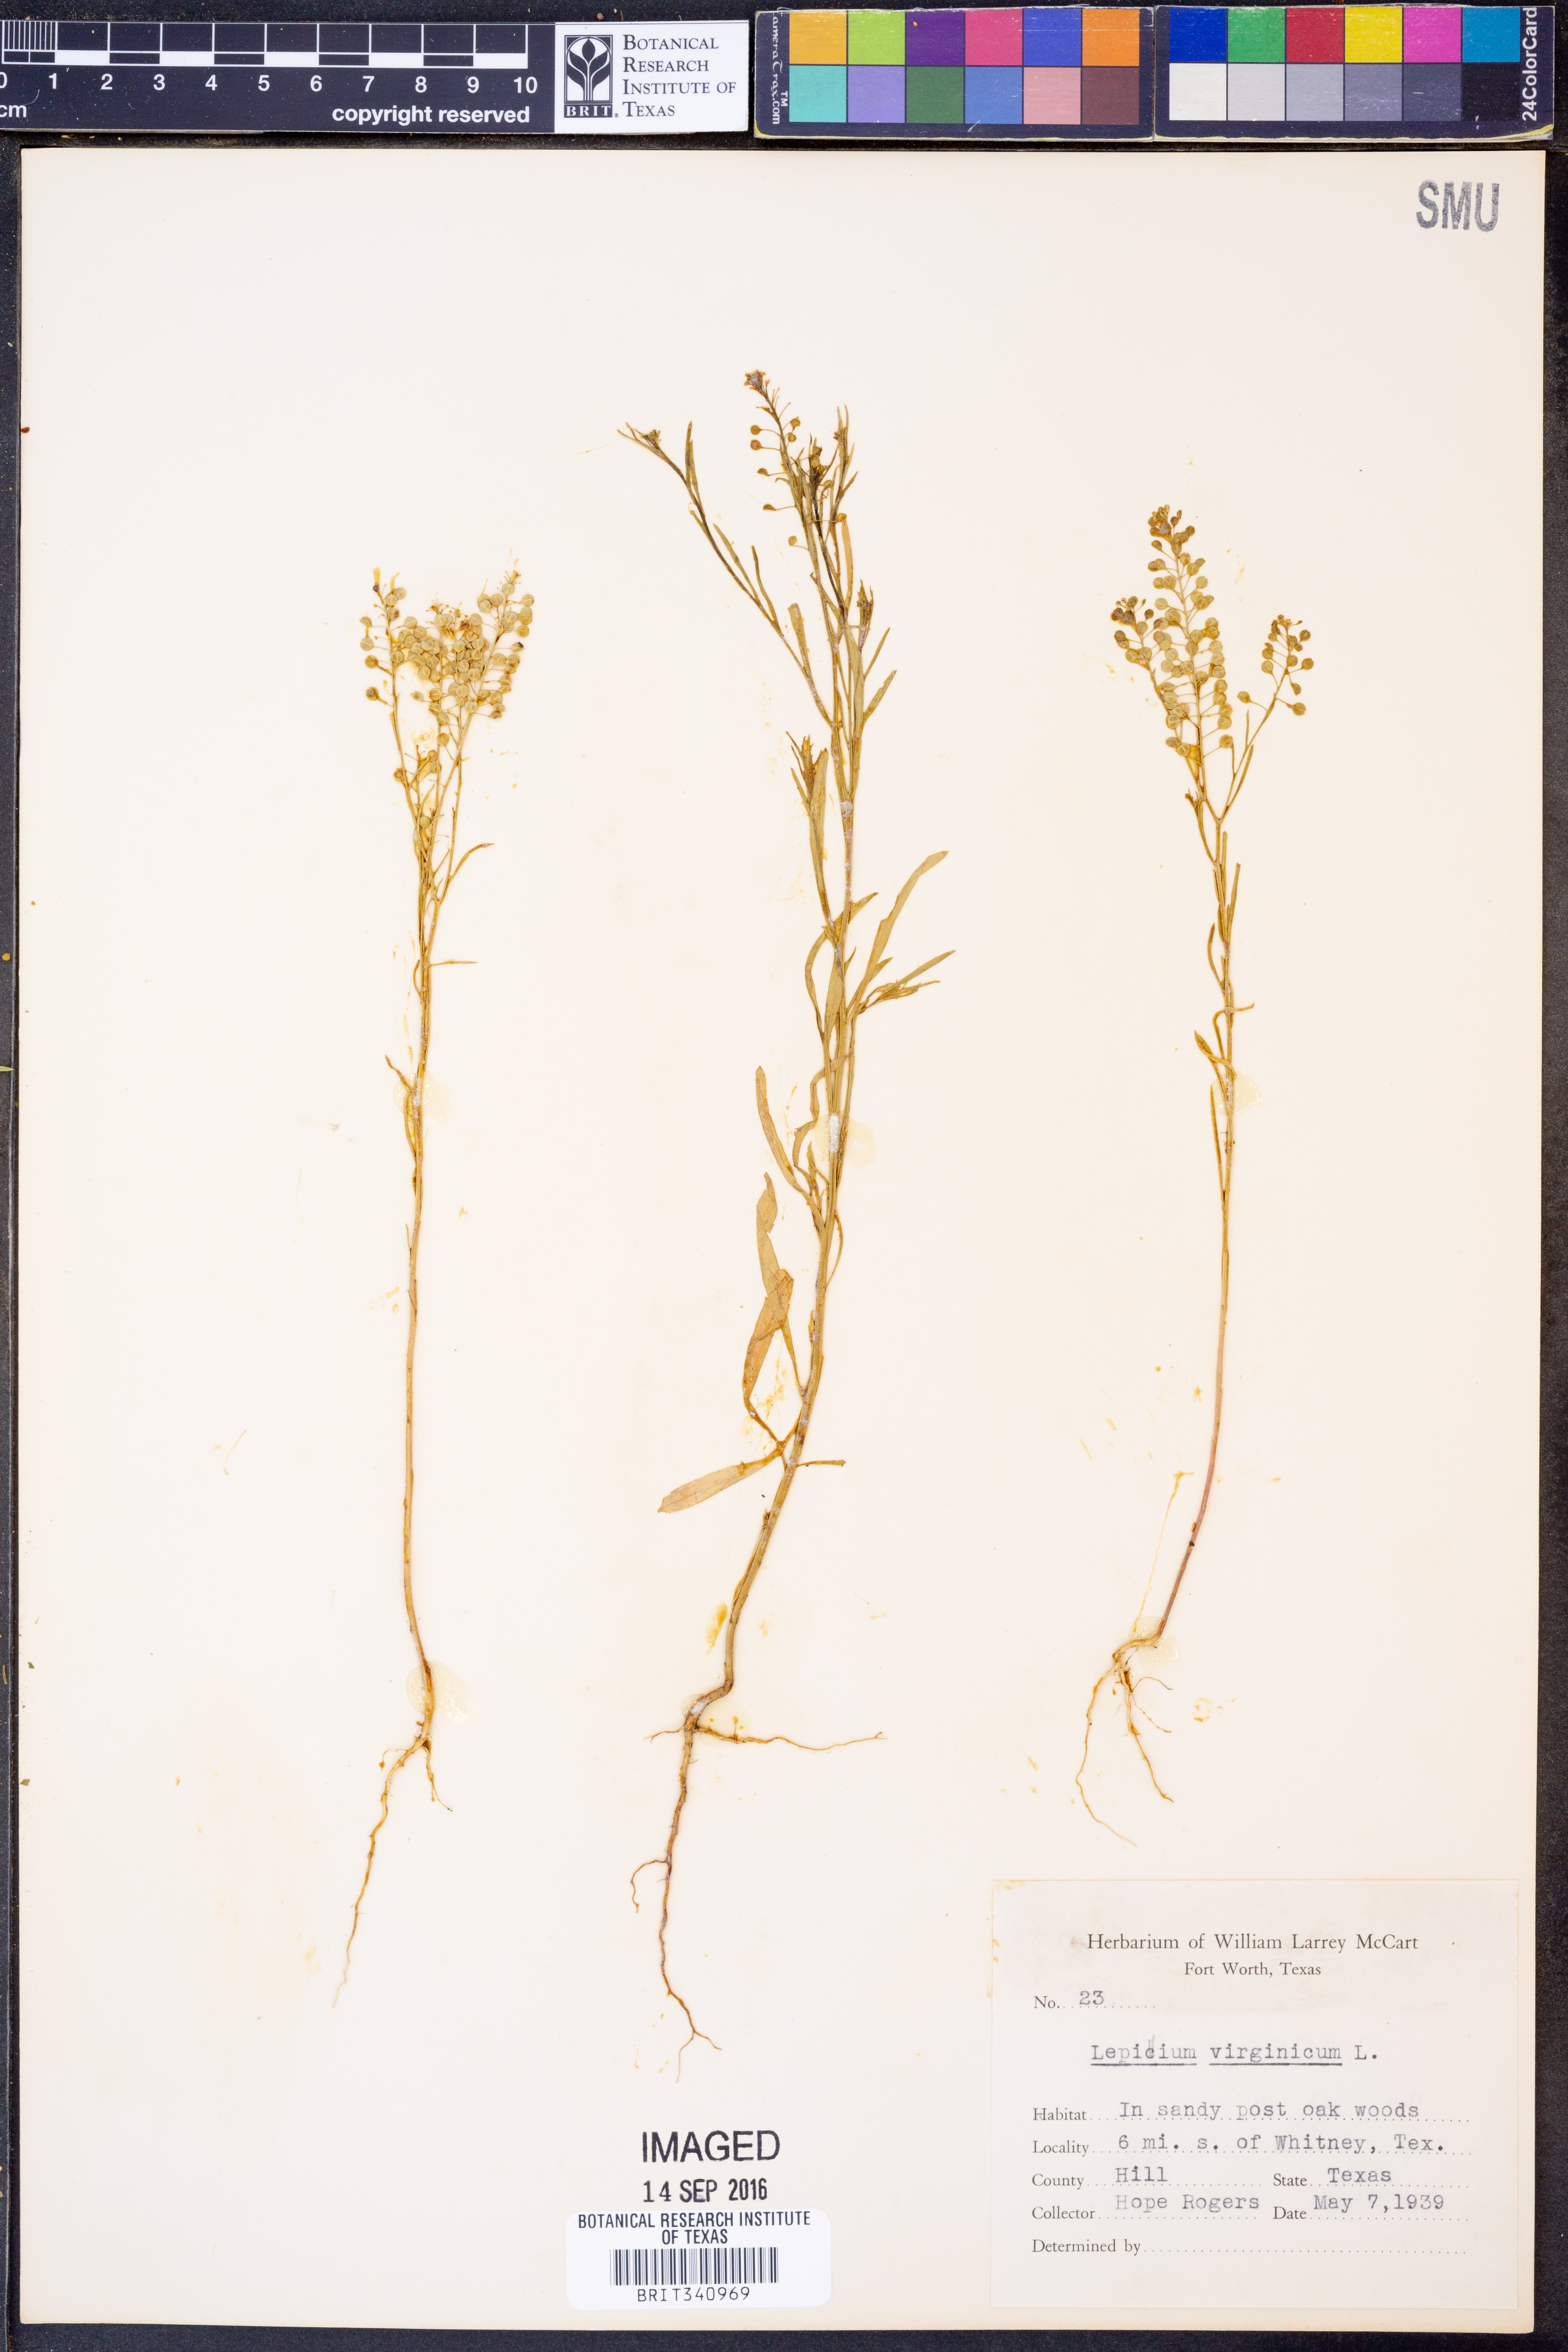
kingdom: Plantae
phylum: Tracheophyta
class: Magnoliopsida
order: Brassicales
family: Brassicaceae
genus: Lepidium
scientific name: Lepidium virginicum
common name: Least pepperwort
